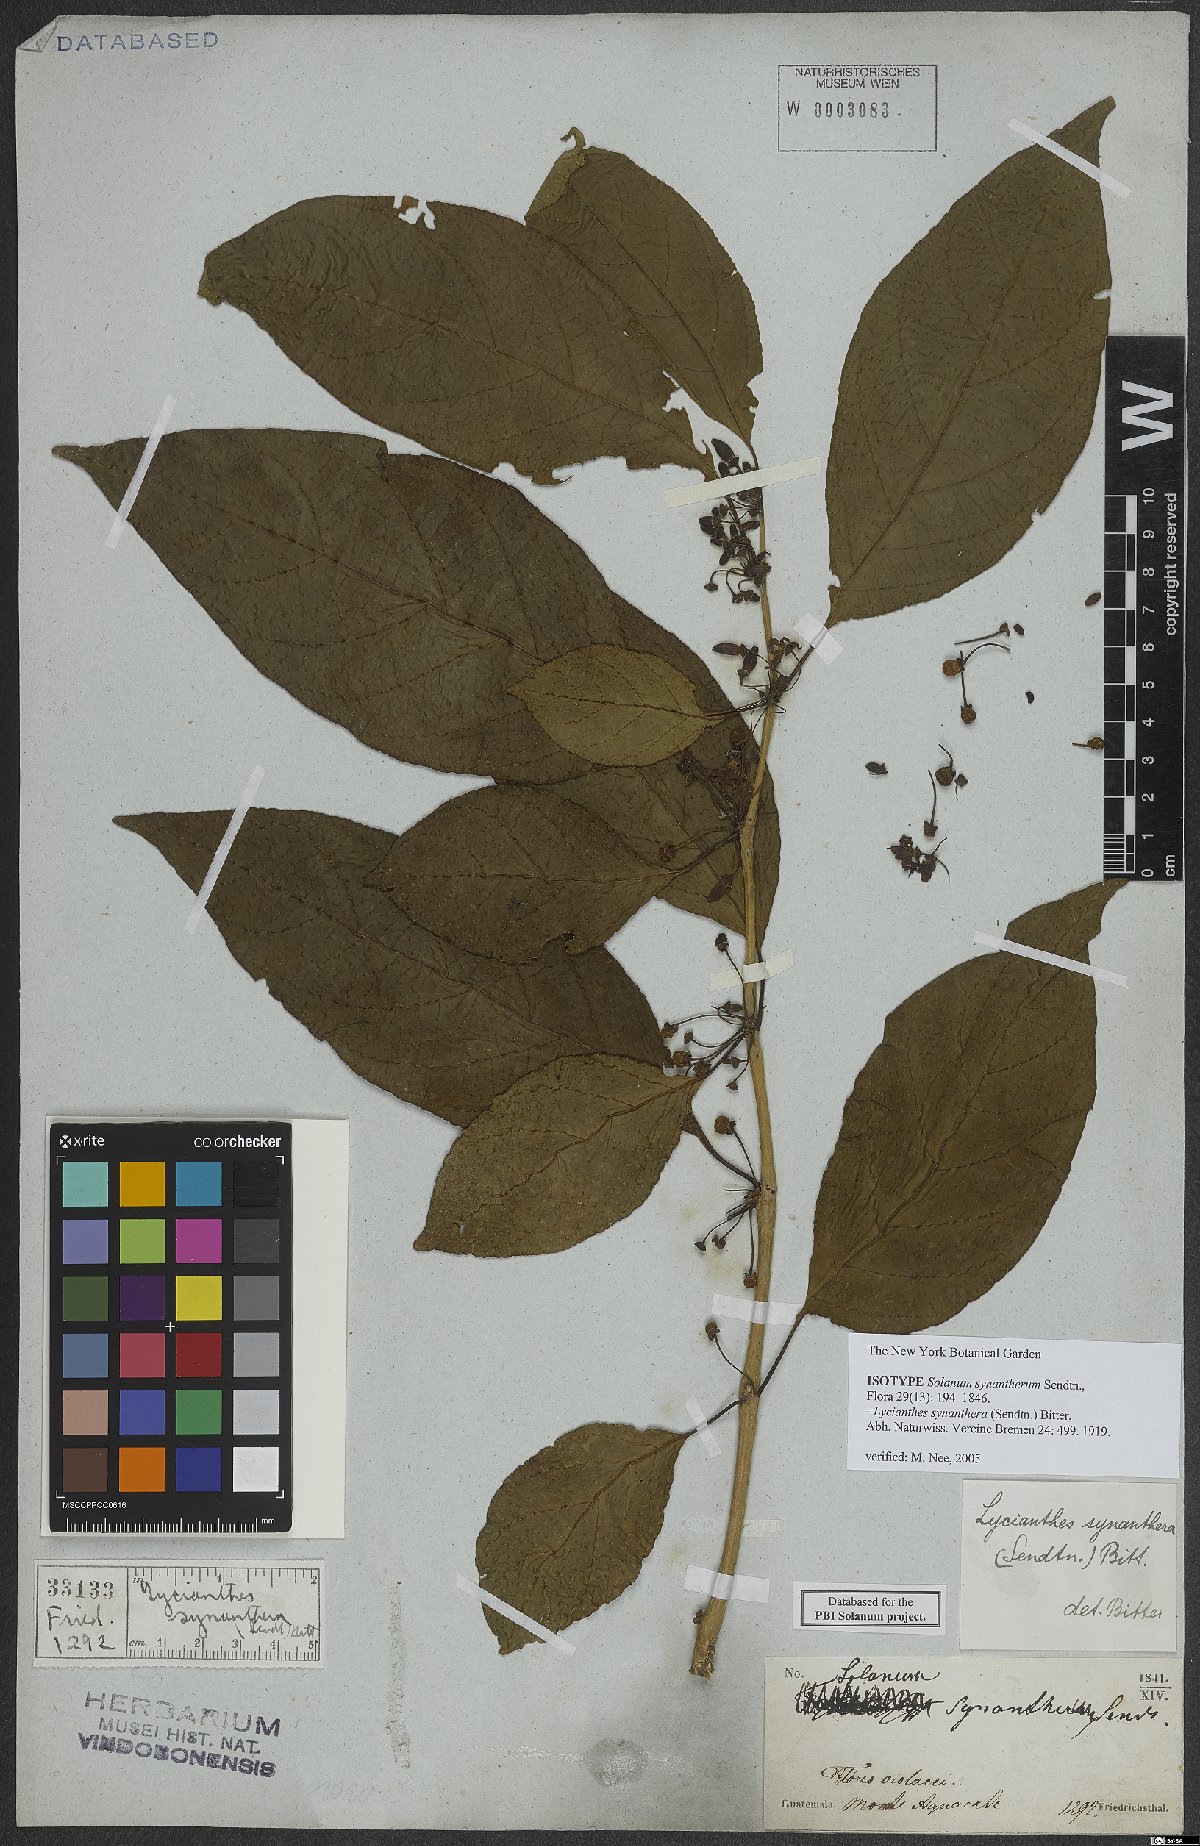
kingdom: Plantae
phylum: Tracheophyta
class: Magnoliopsida
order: Solanales
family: Solanaceae
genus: Lycianthes
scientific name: Lycianthes synanthera
